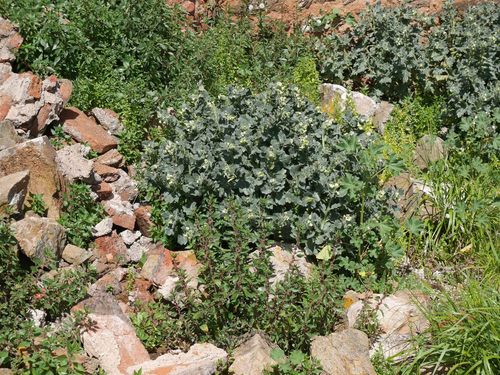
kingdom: Plantae
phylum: Tracheophyta
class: Magnoliopsida
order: Solanales
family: Solanaceae
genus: Hyoscyamus
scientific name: Hyoscyamus albus
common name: White henbane
